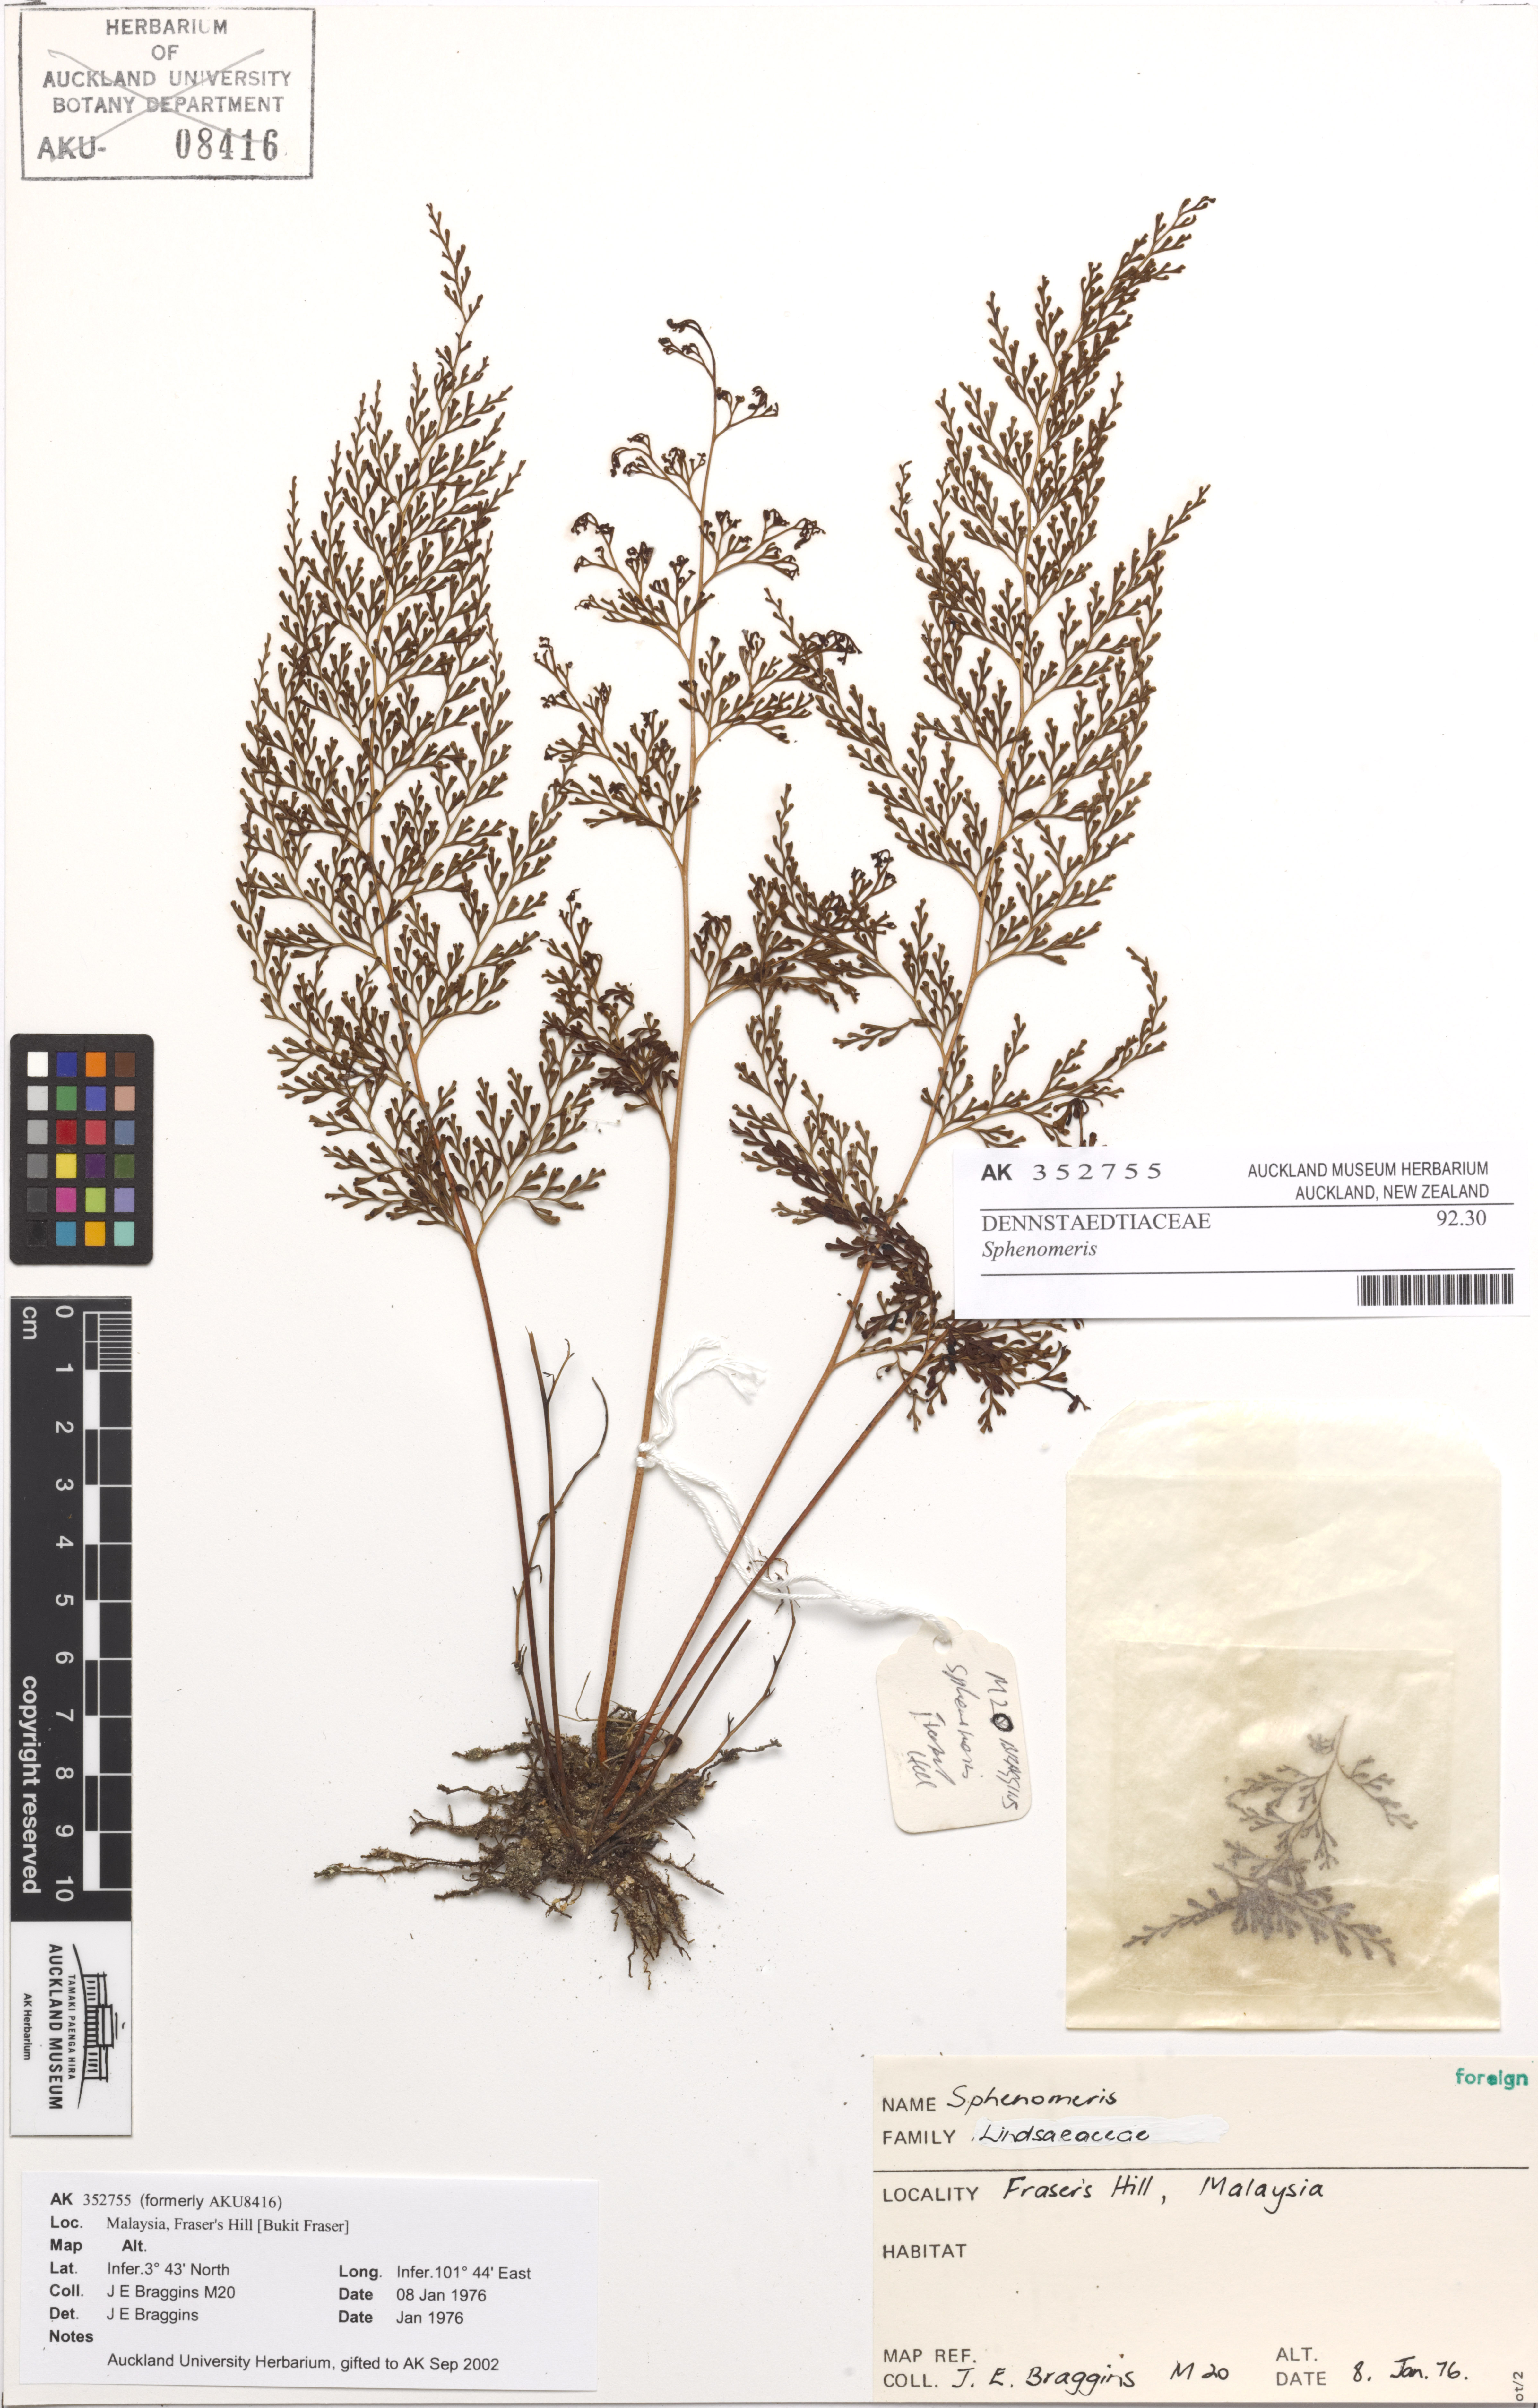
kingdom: Plantae
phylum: Tracheophyta
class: Polypodiopsida
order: Polypodiales
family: Lindsaeaceae
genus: Sphenomeris
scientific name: Sphenomeris
